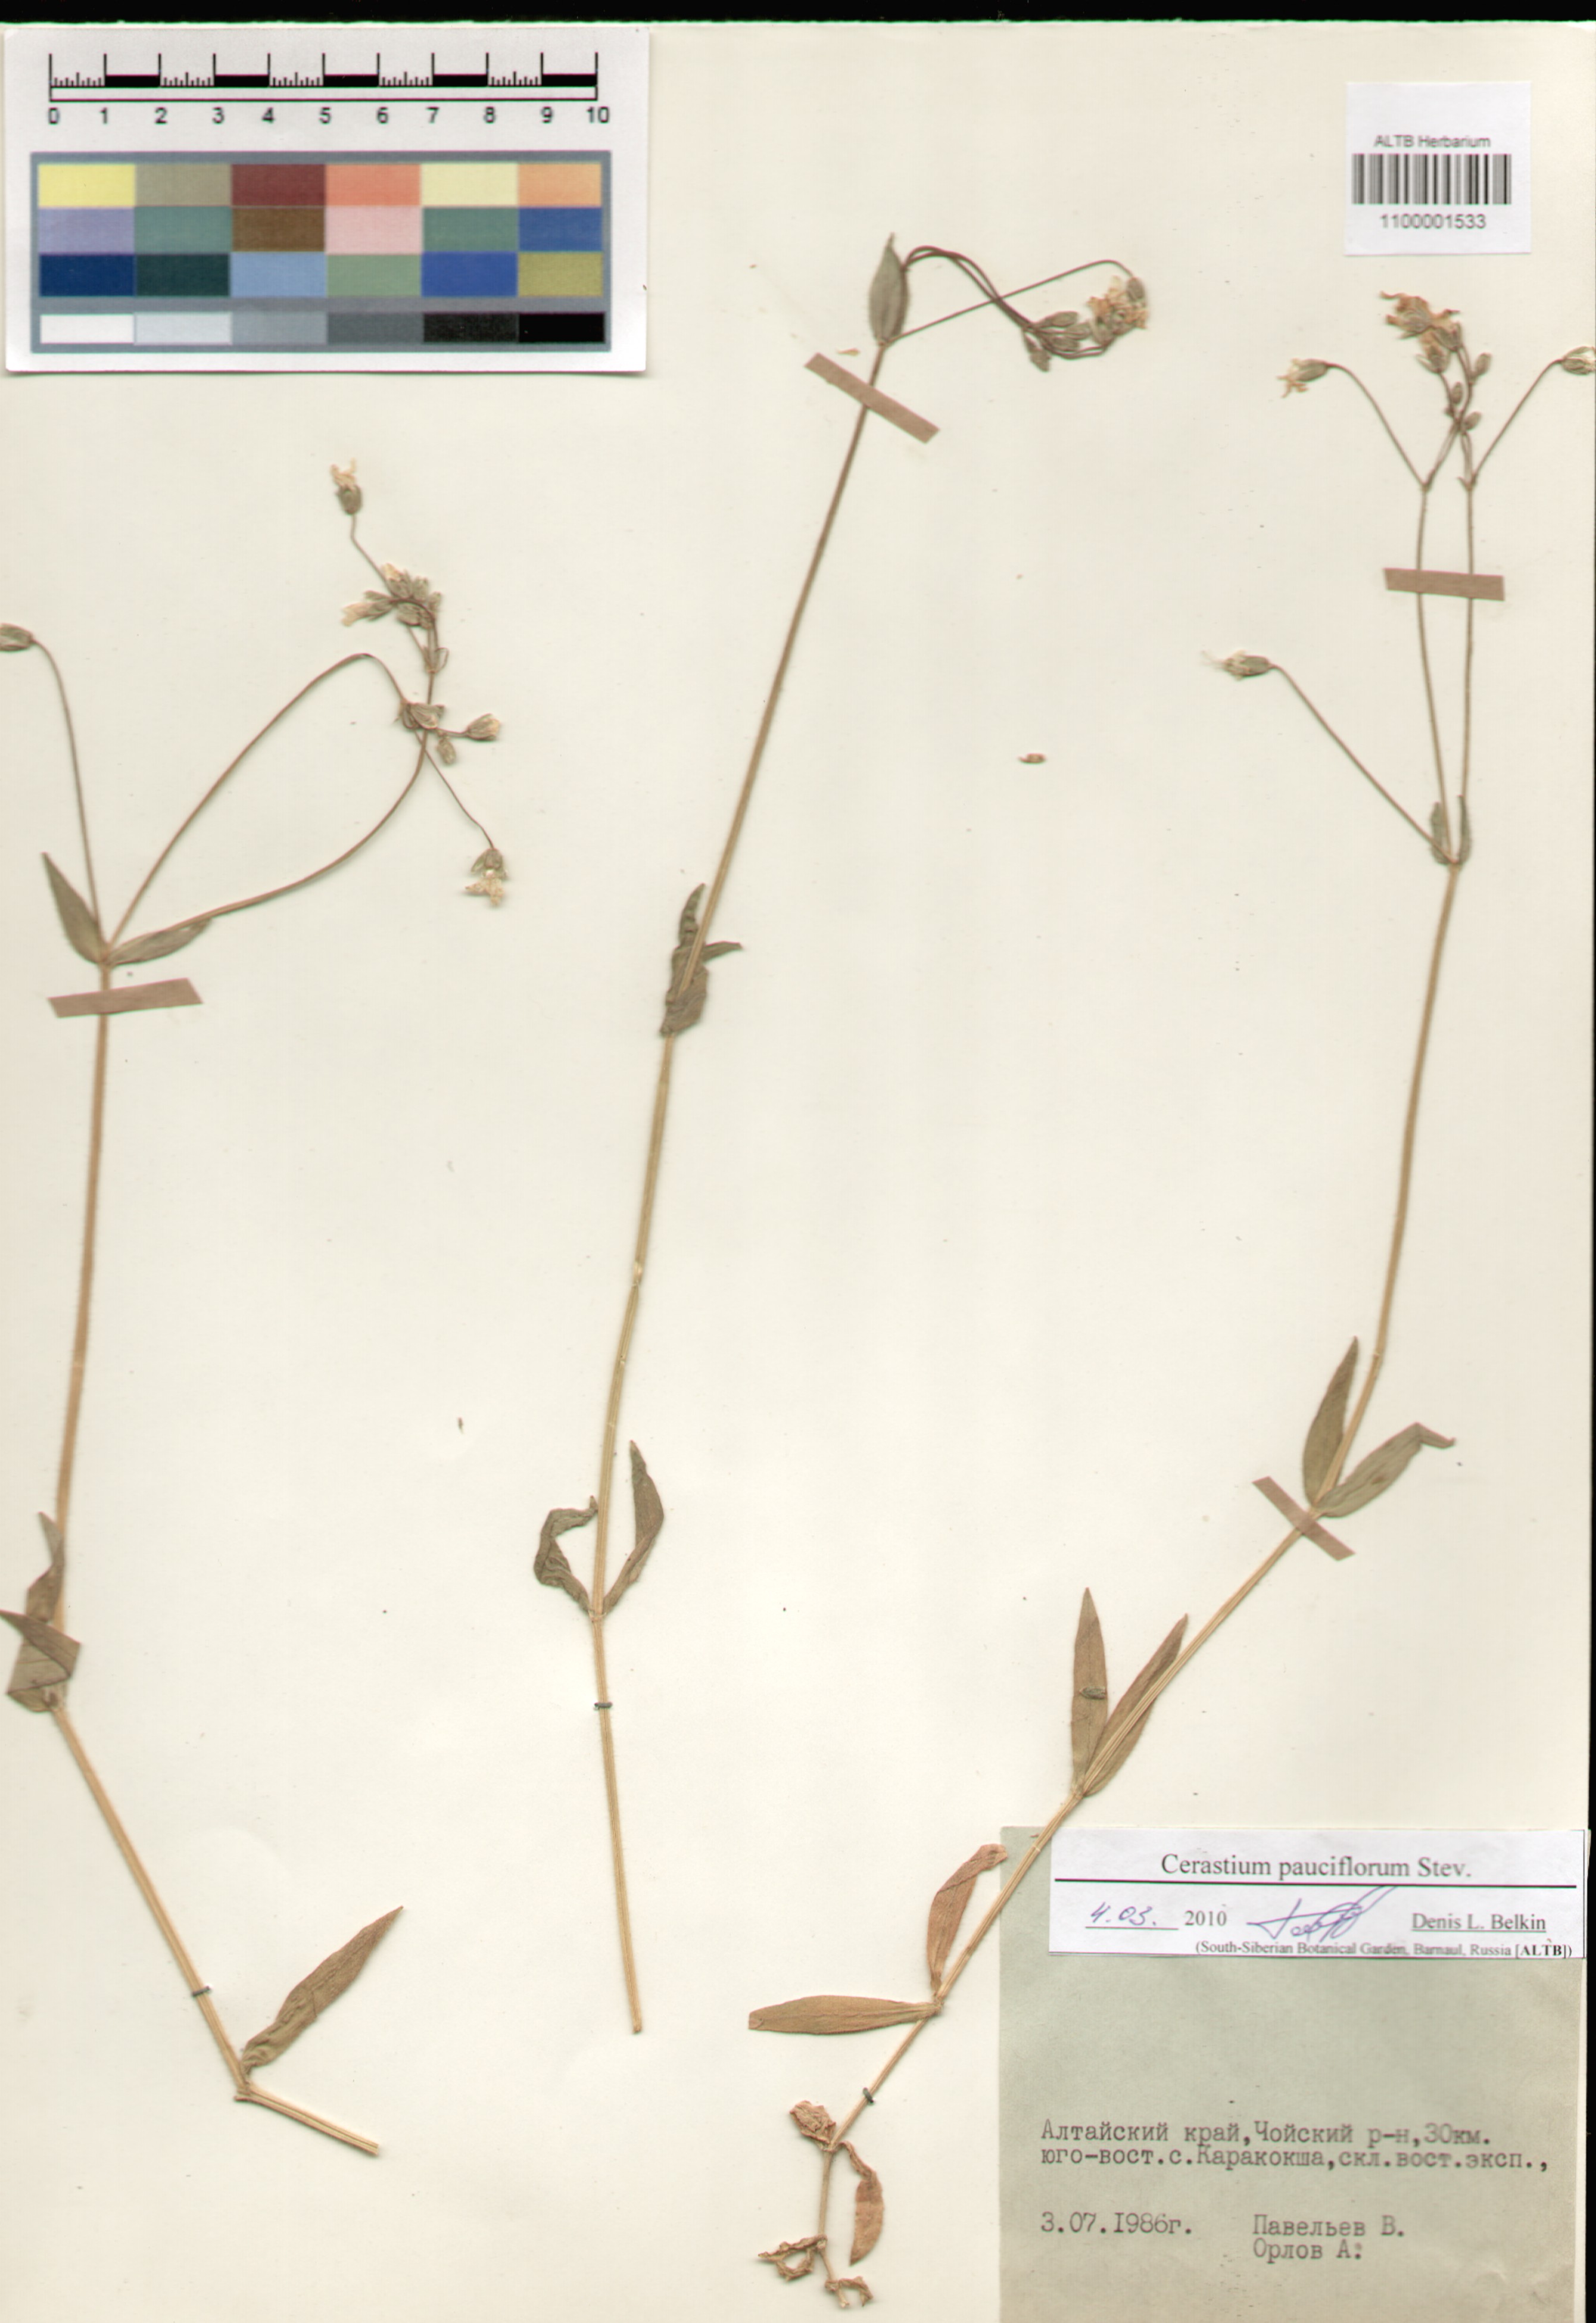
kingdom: Plantae
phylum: Tracheophyta
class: Magnoliopsida
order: Caryophyllales
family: Caryophyllaceae
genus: Cerastium
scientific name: Cerastium pauciflorum
